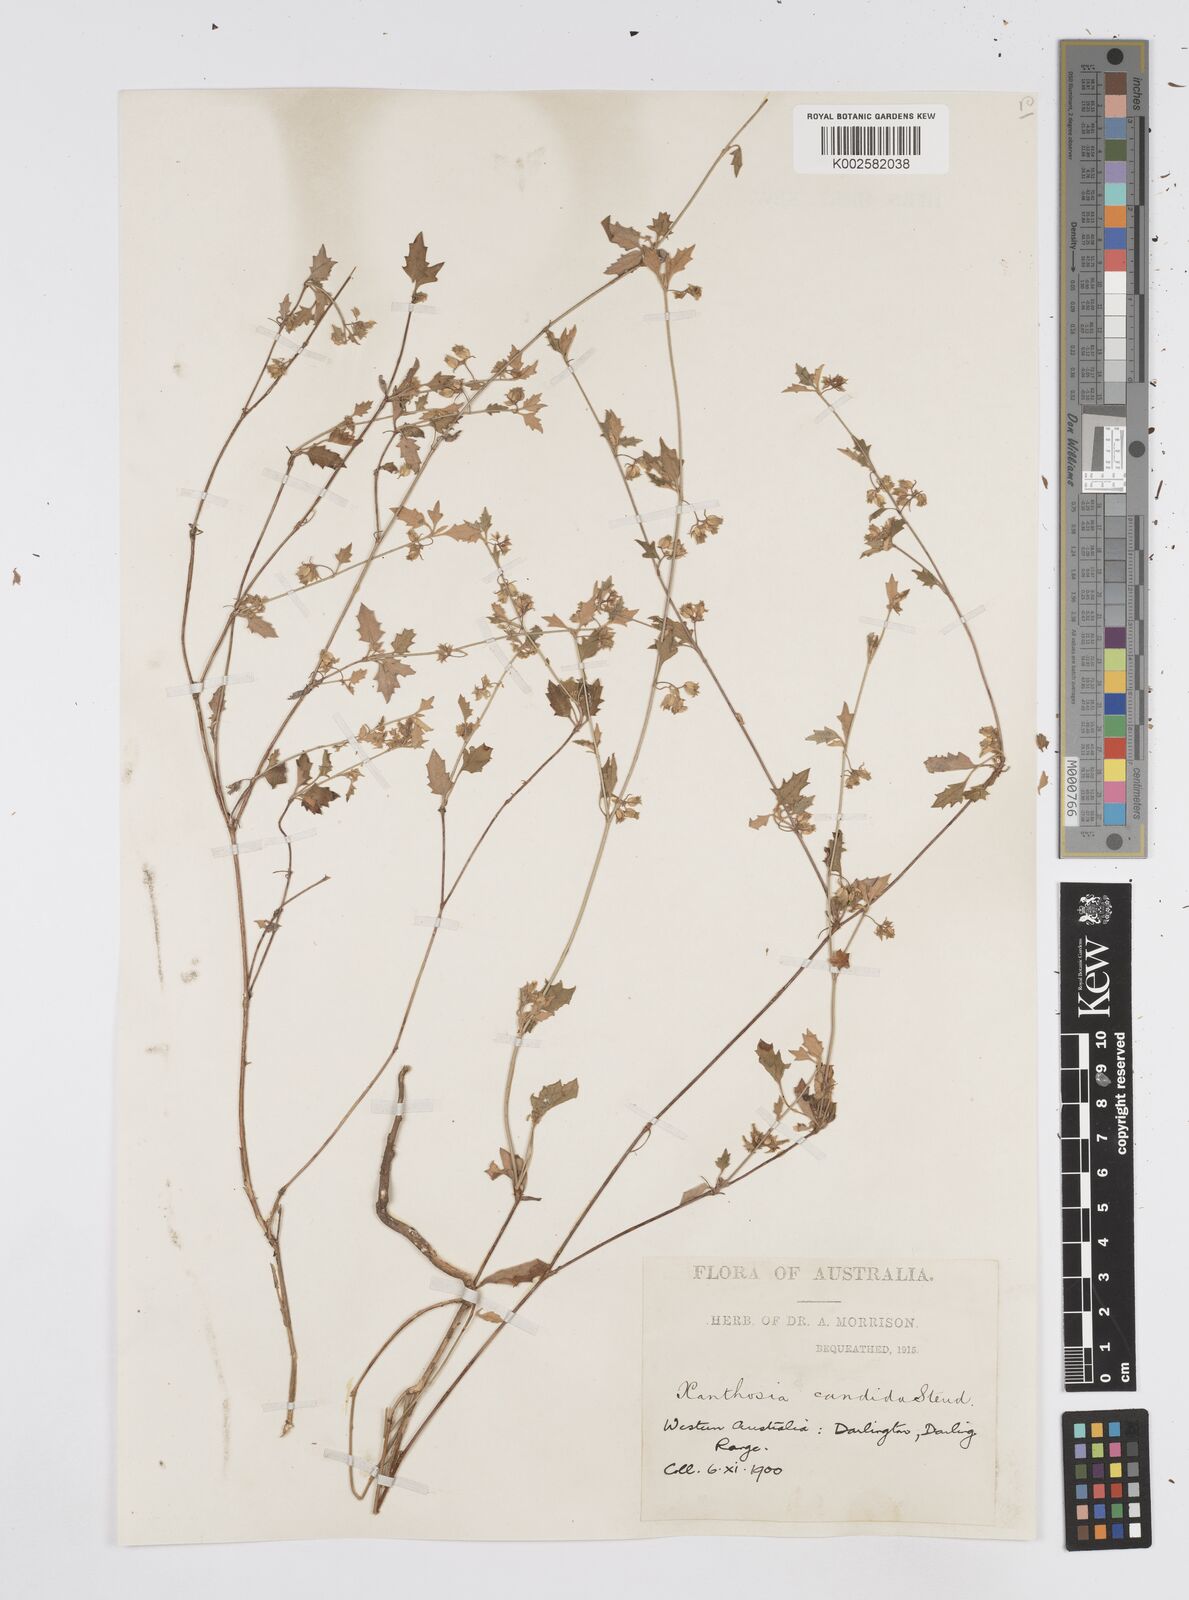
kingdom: Plantae
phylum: Tracheophyta
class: Magnoliopsida
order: Apiales
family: Apiaceae
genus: Xanthosia
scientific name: Xanthosia candida
